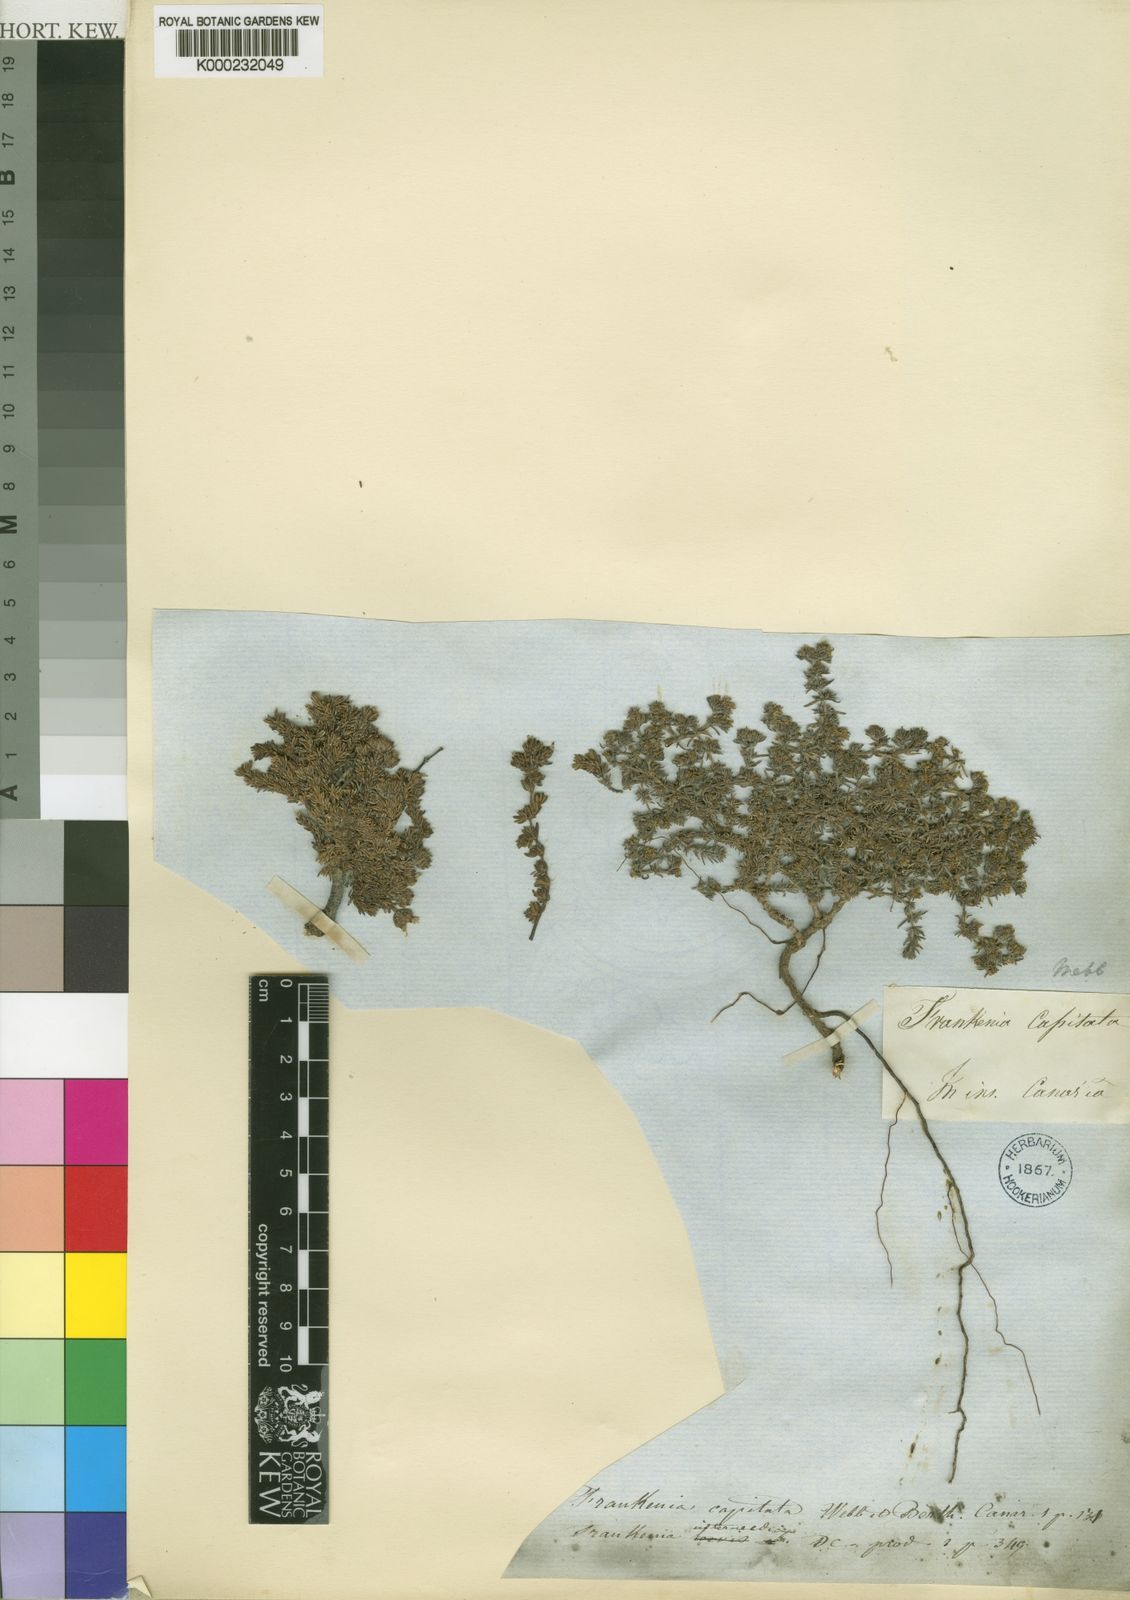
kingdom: Plantae
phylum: Tracheophyta
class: Magnoliopsida
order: Caryophyllales
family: Frankeniaceae
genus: Frankenia
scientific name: Frankenia capitata
